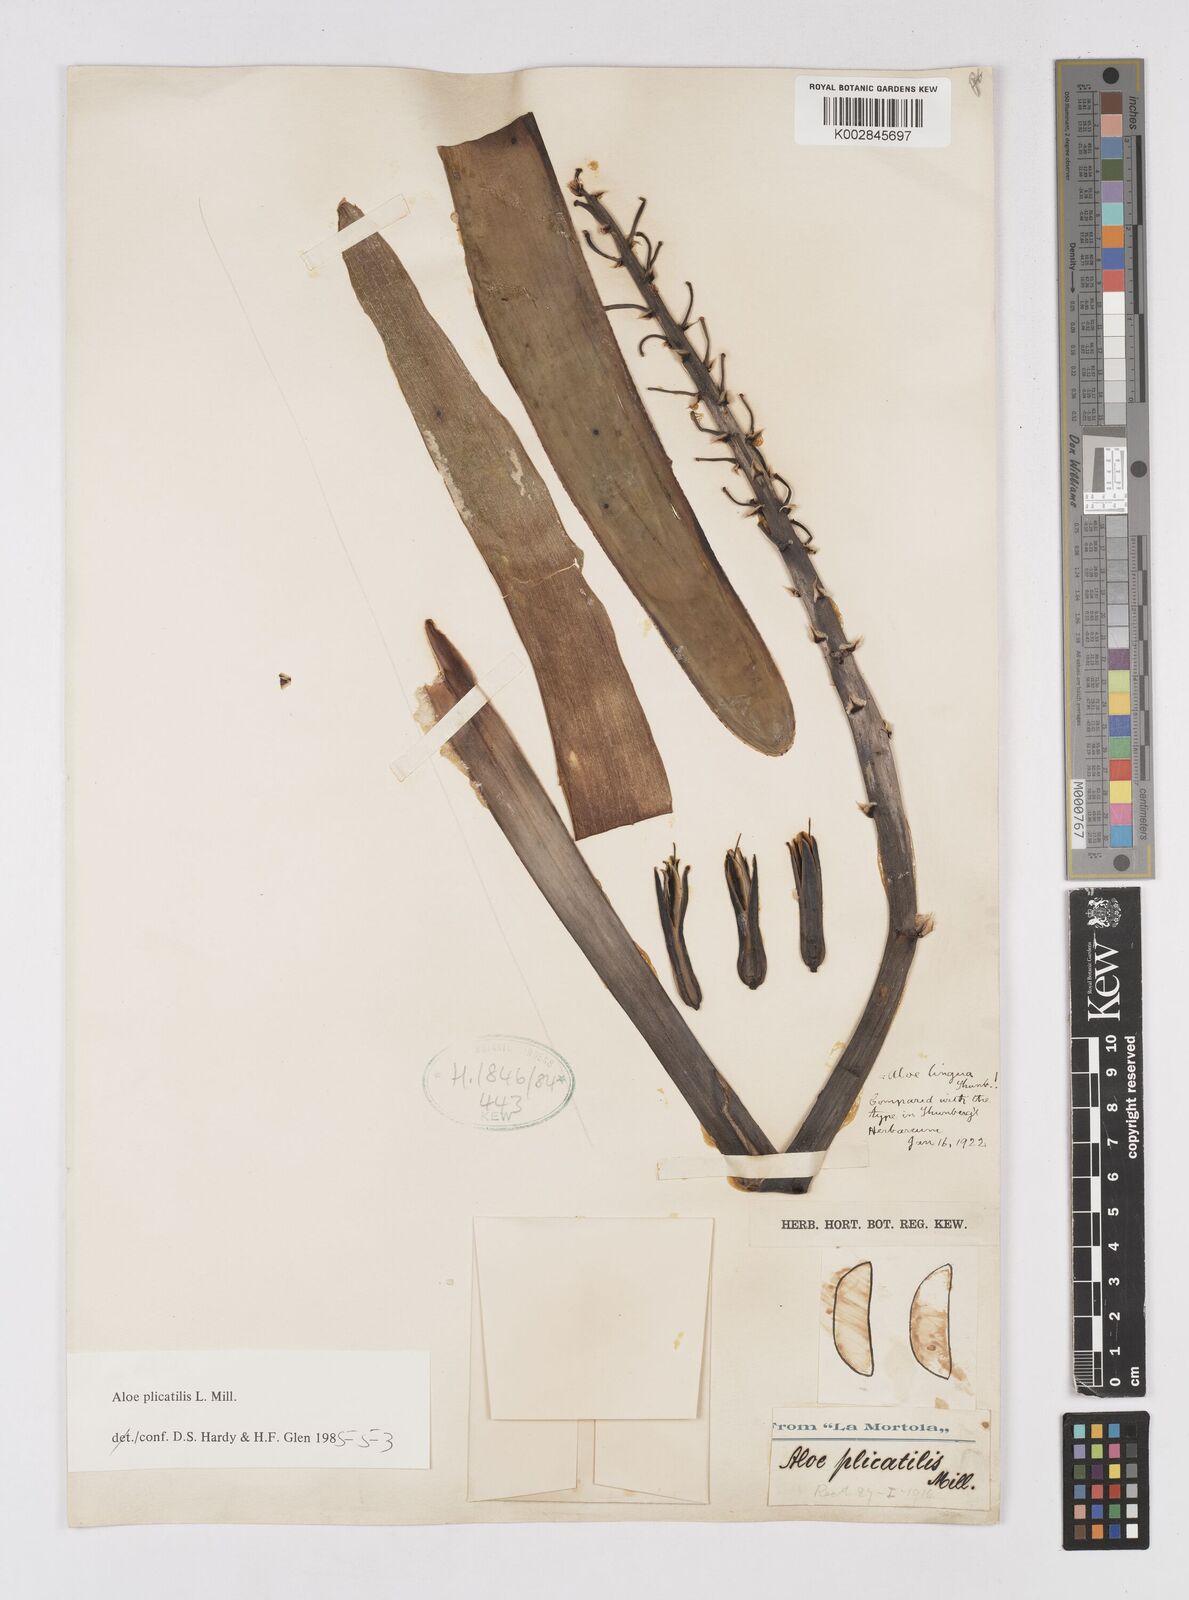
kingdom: Plantae
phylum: Tracheophyta
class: Liliopsida
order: Asparagales
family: Asphodelaceae
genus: Kumara
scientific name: Kumara plicatilis
